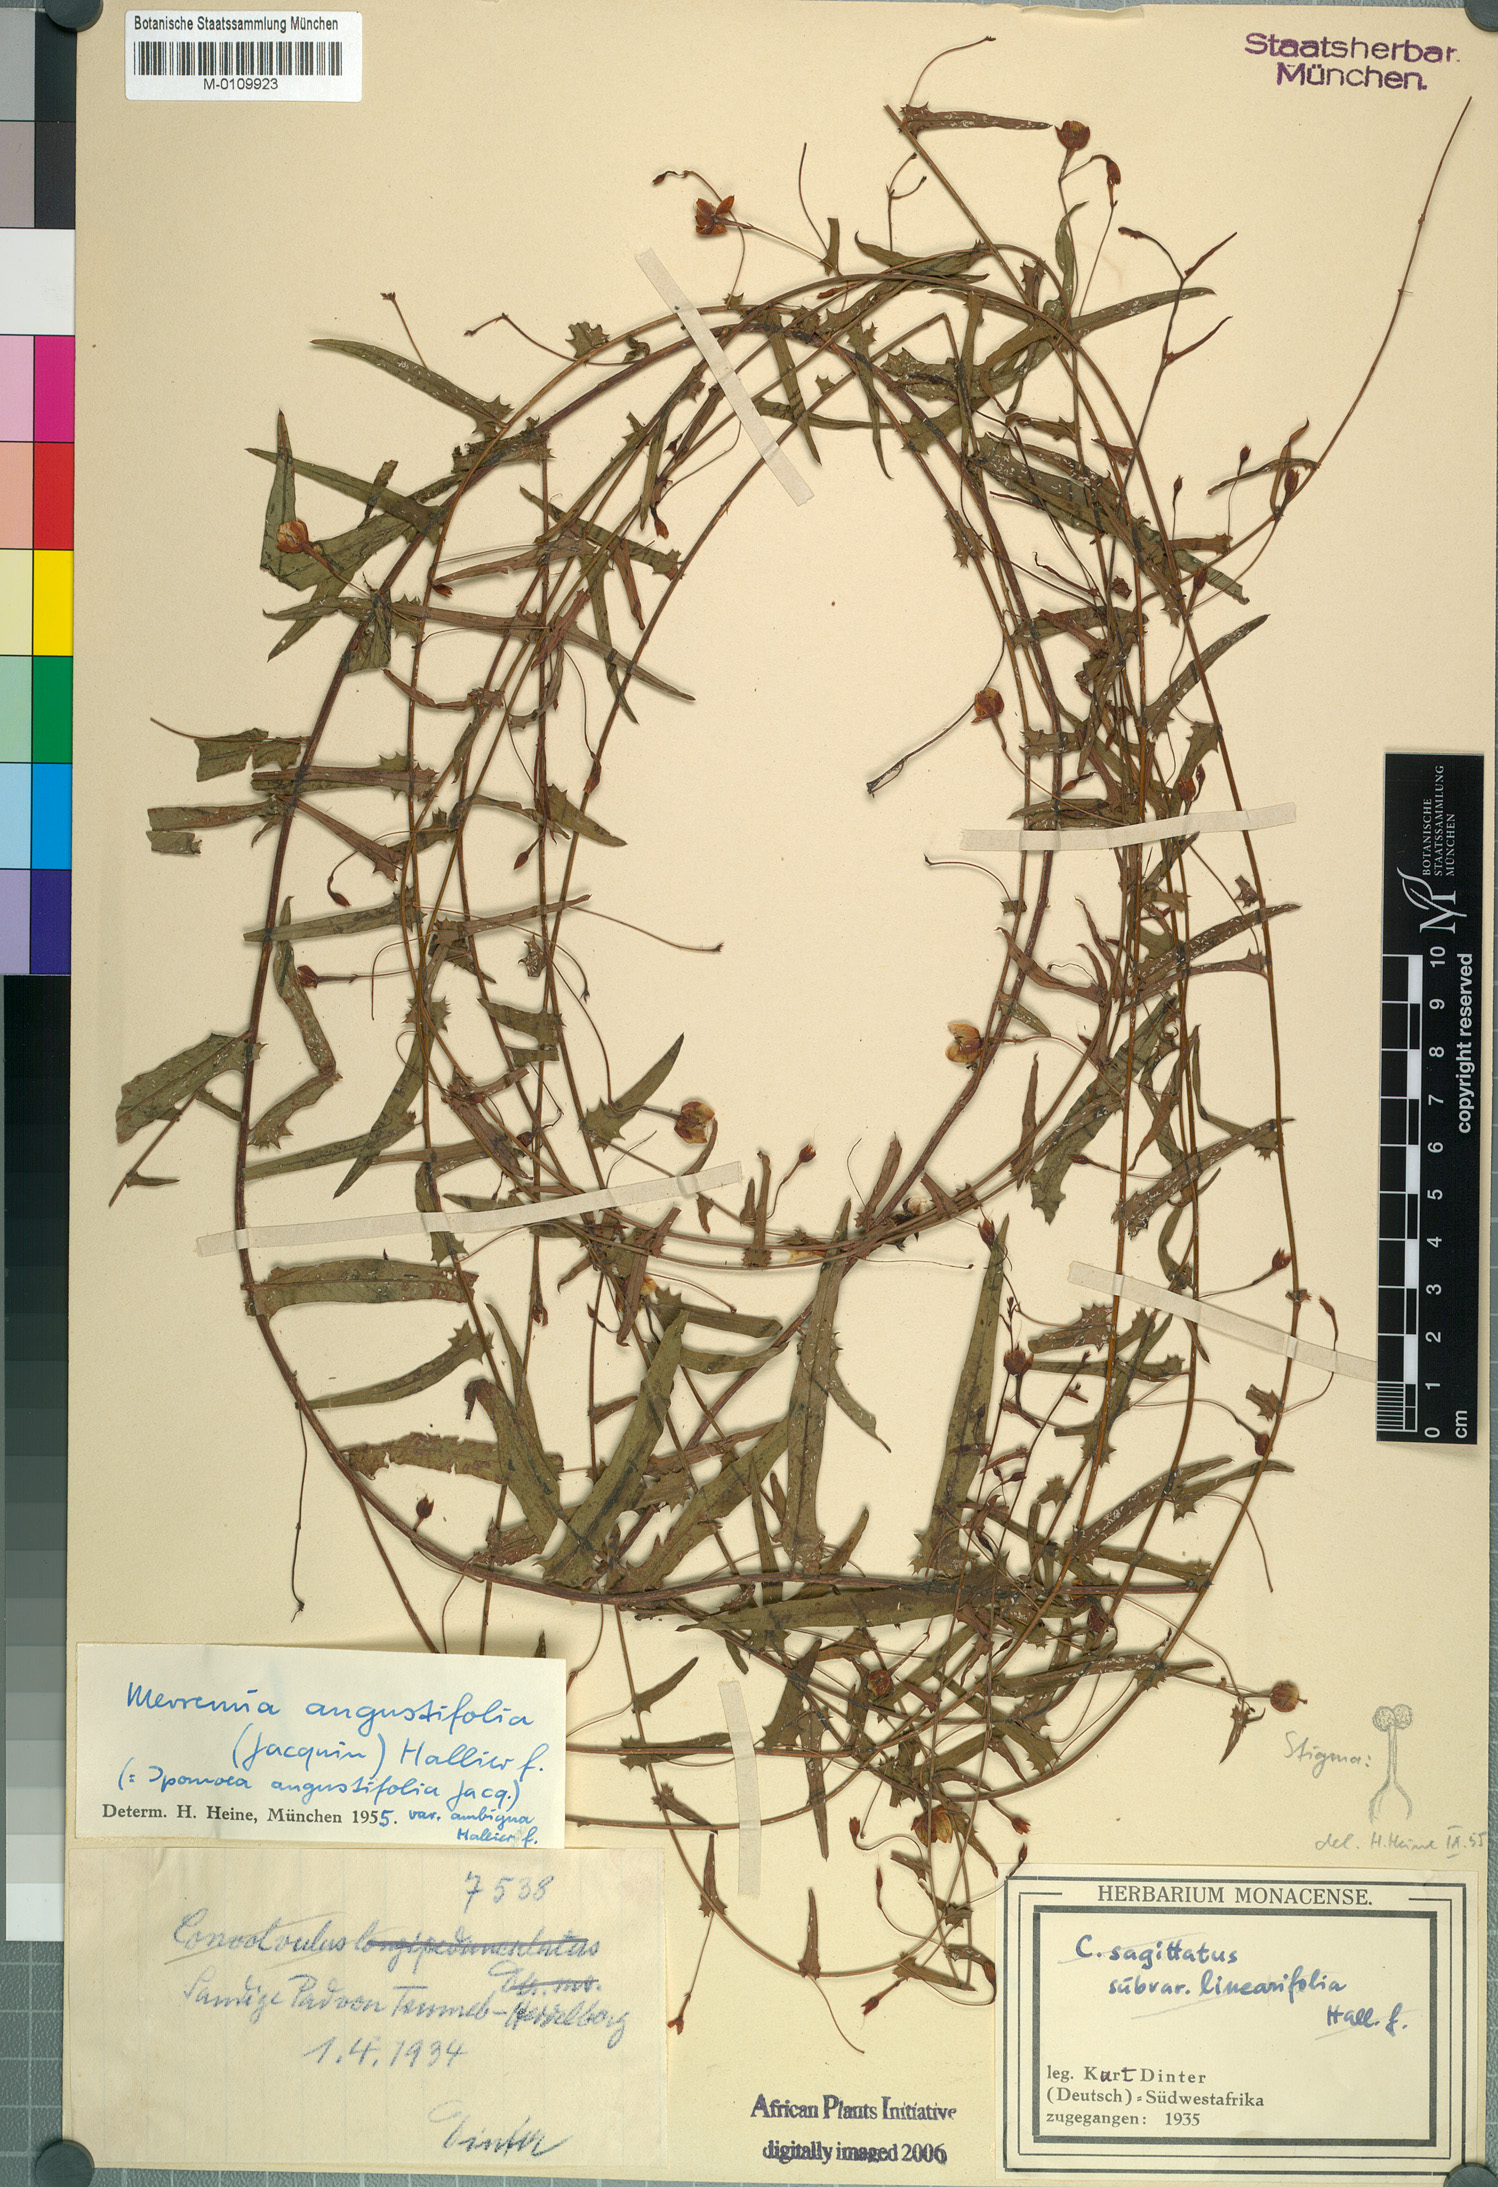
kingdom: Plantae
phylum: Tracheophyta
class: Magnoliopsida
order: Solanales
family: Convolvulaceae
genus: Xenostegia
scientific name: Xenostegia tridentata
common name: African morningvine
